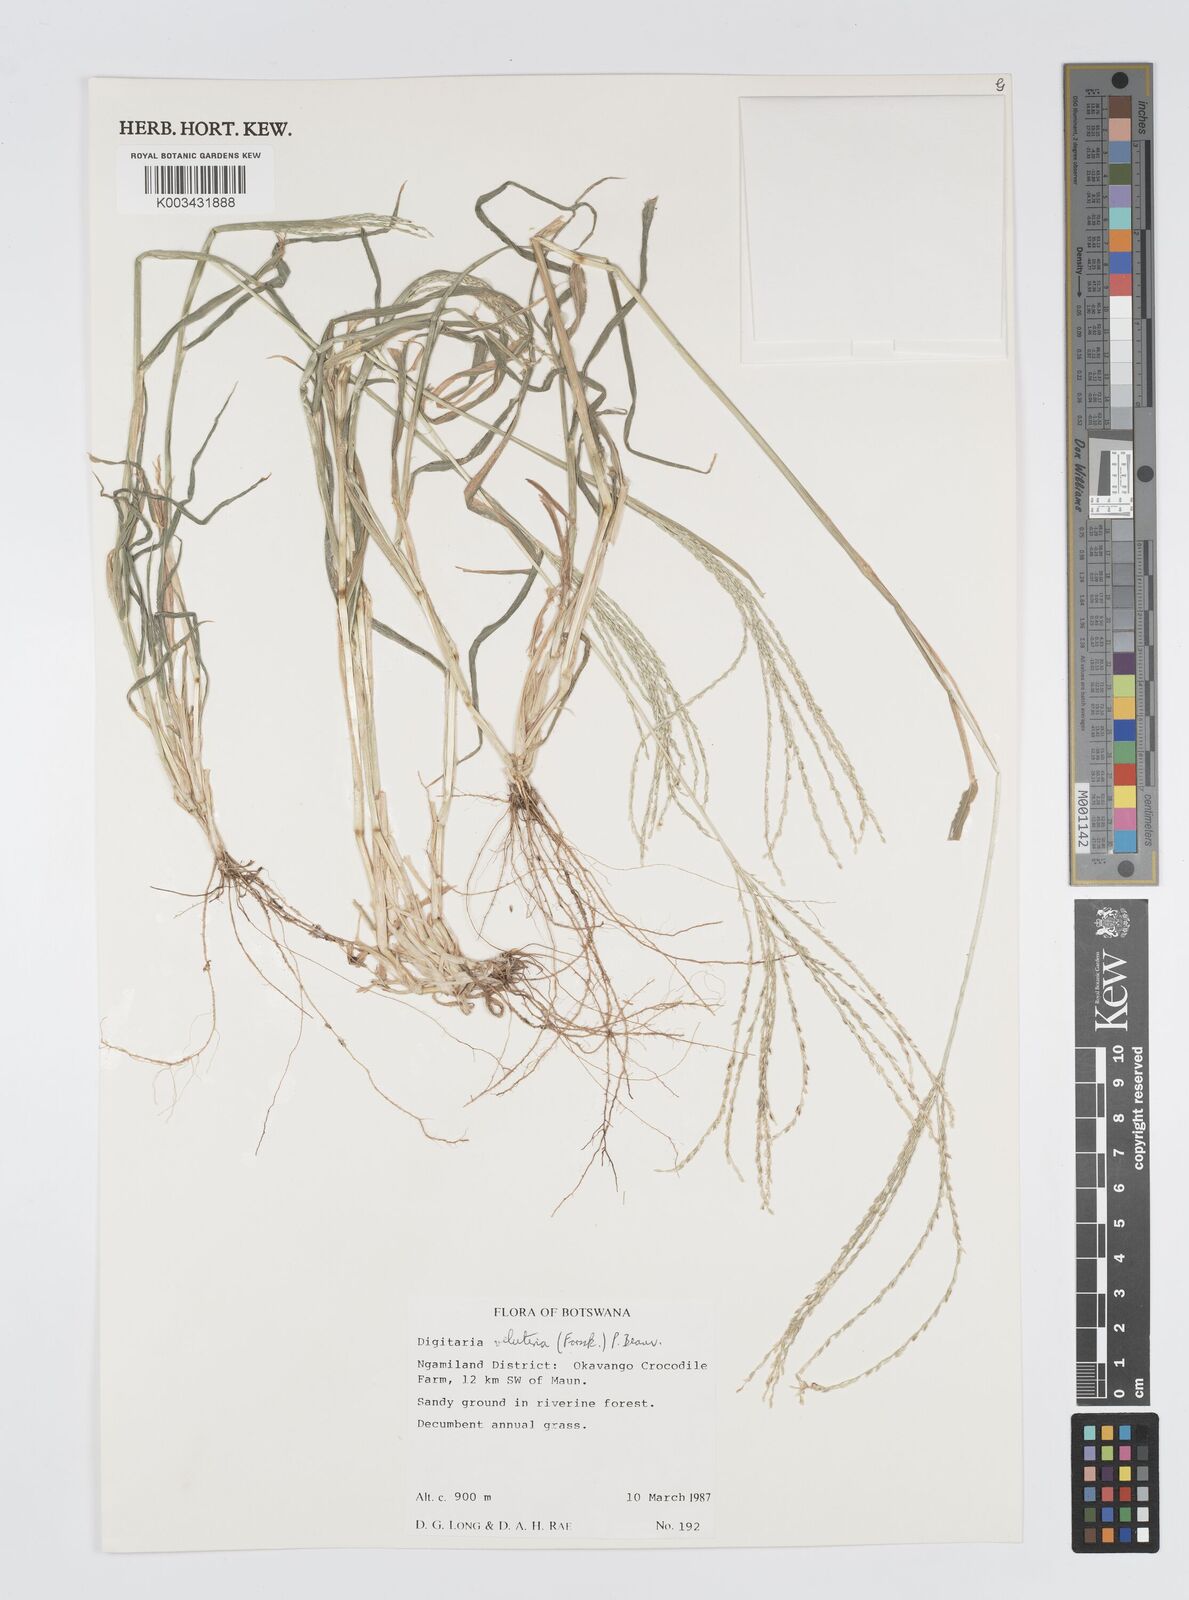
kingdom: Plantae
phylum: Tracheophyta
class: Liliopsida
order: Poales
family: Poaceae
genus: Digitaria
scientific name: Digitaria velutina
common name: Long-plume finger grass
